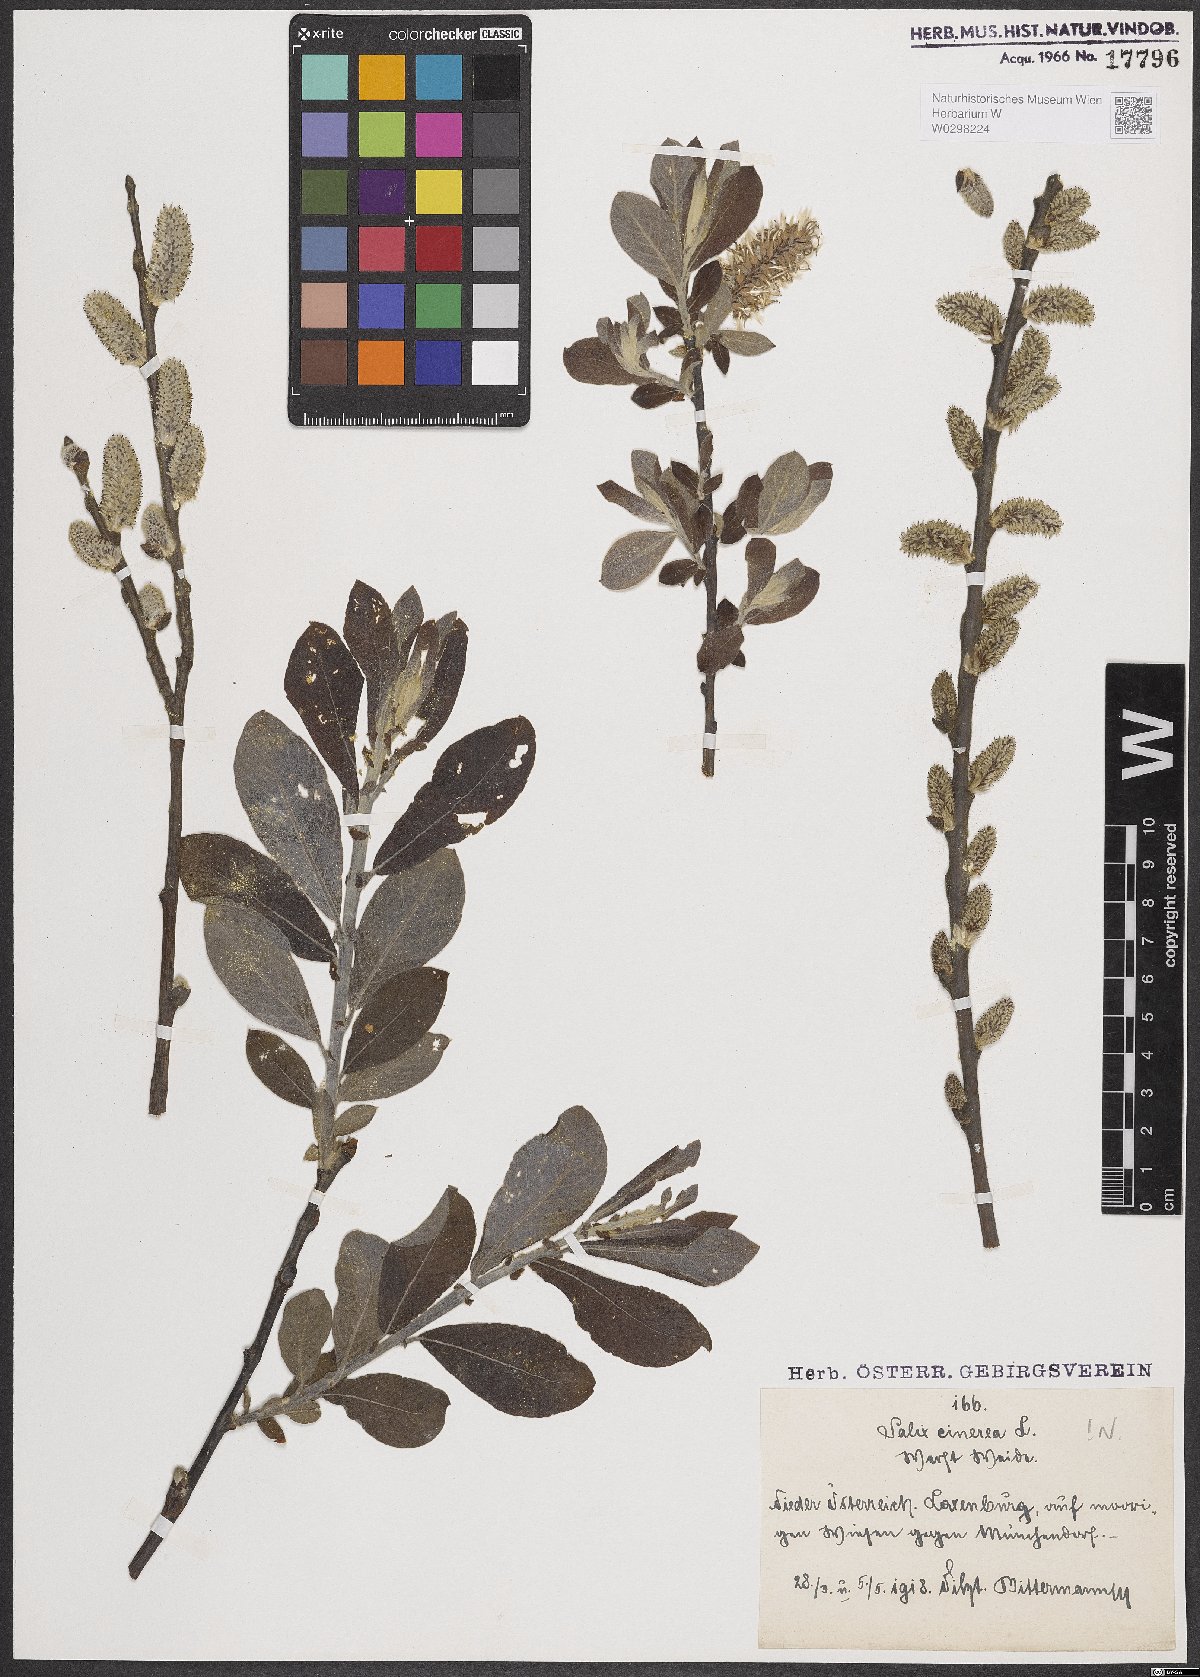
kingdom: Plantae
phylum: Tracheophyta
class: Magnoliopsida
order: Malpighiales
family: Salicaceae
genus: Salix
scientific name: Salix cinerea
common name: Common sallow
